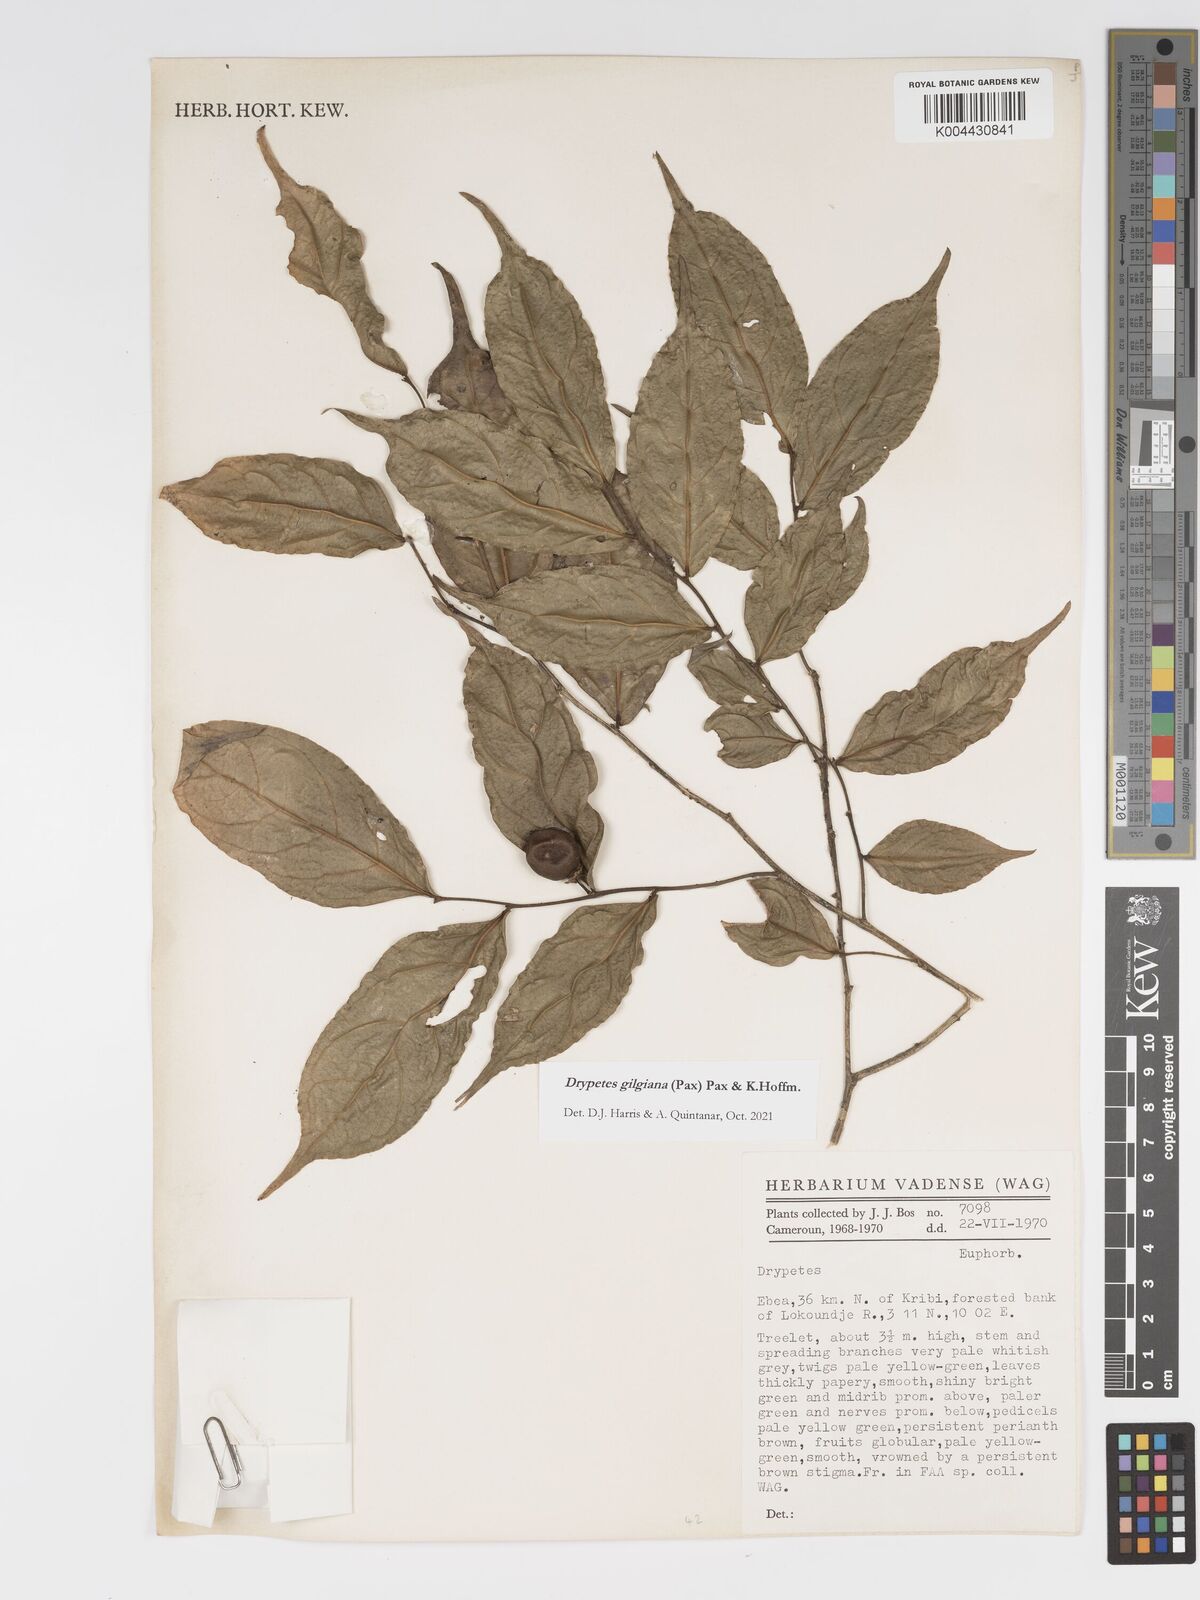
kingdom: Plantae
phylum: Tracheophyta
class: Magnoliopsida
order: Malpighiales
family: Putranjivaceae
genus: Drypetes
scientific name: Drypetes gilgiana
